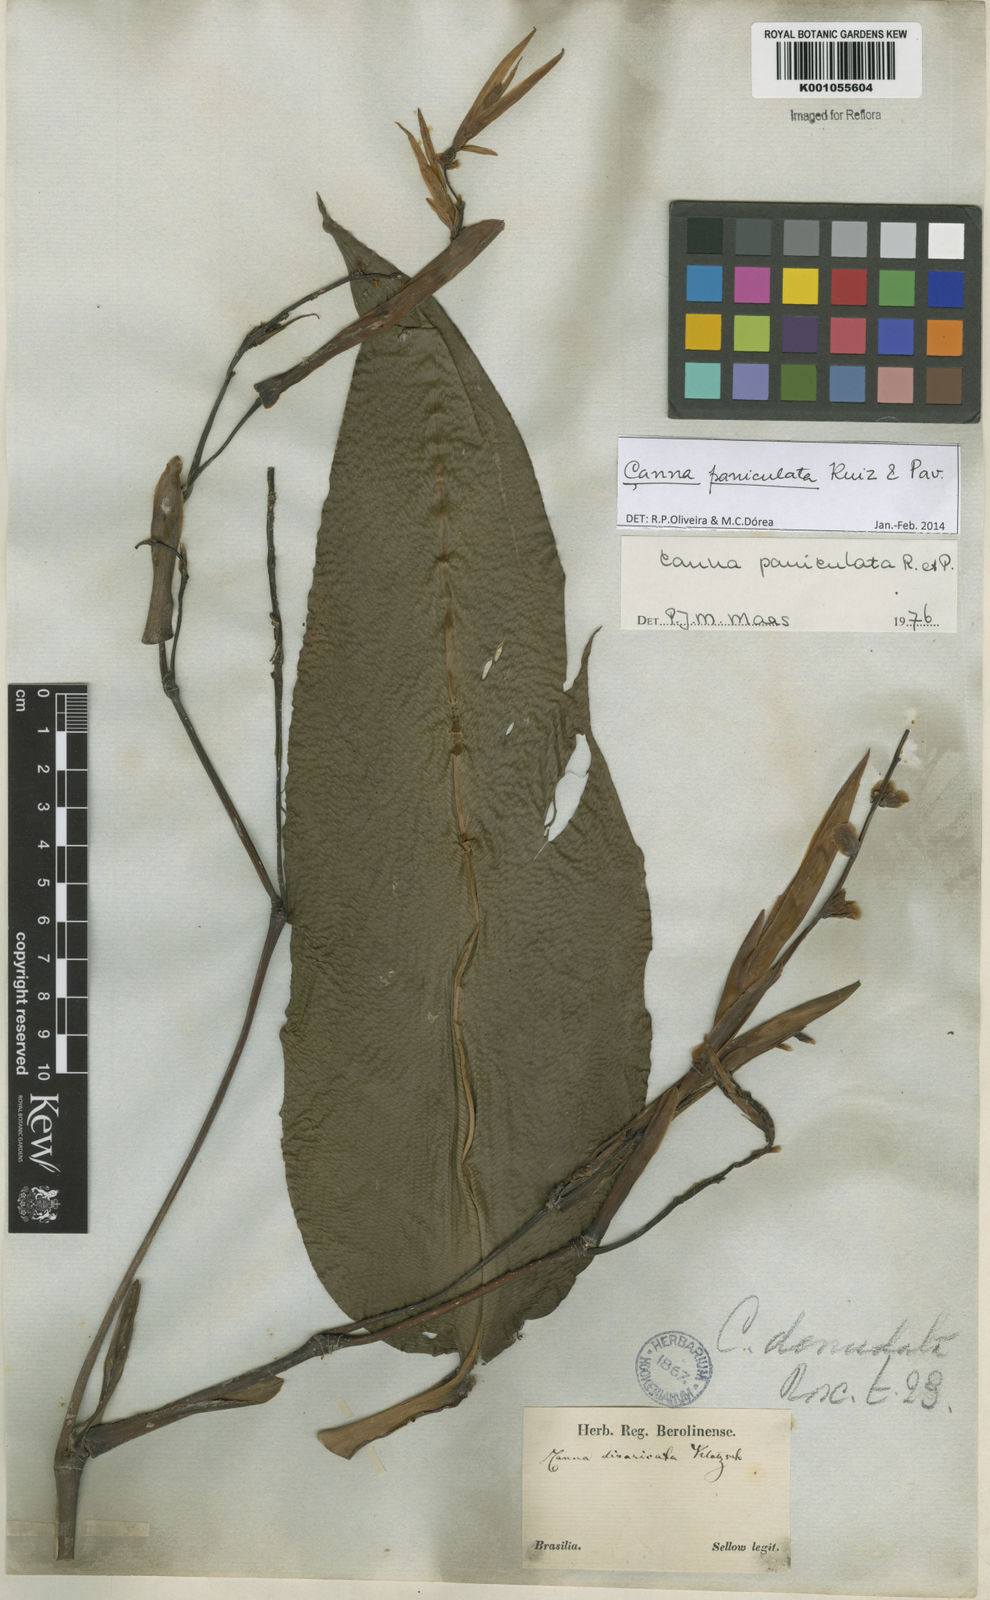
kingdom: Plantae
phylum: Tracheophyta
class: Liliopsida
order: Zingiberales
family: Cannaceae
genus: Canna
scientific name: Canna paniculata
